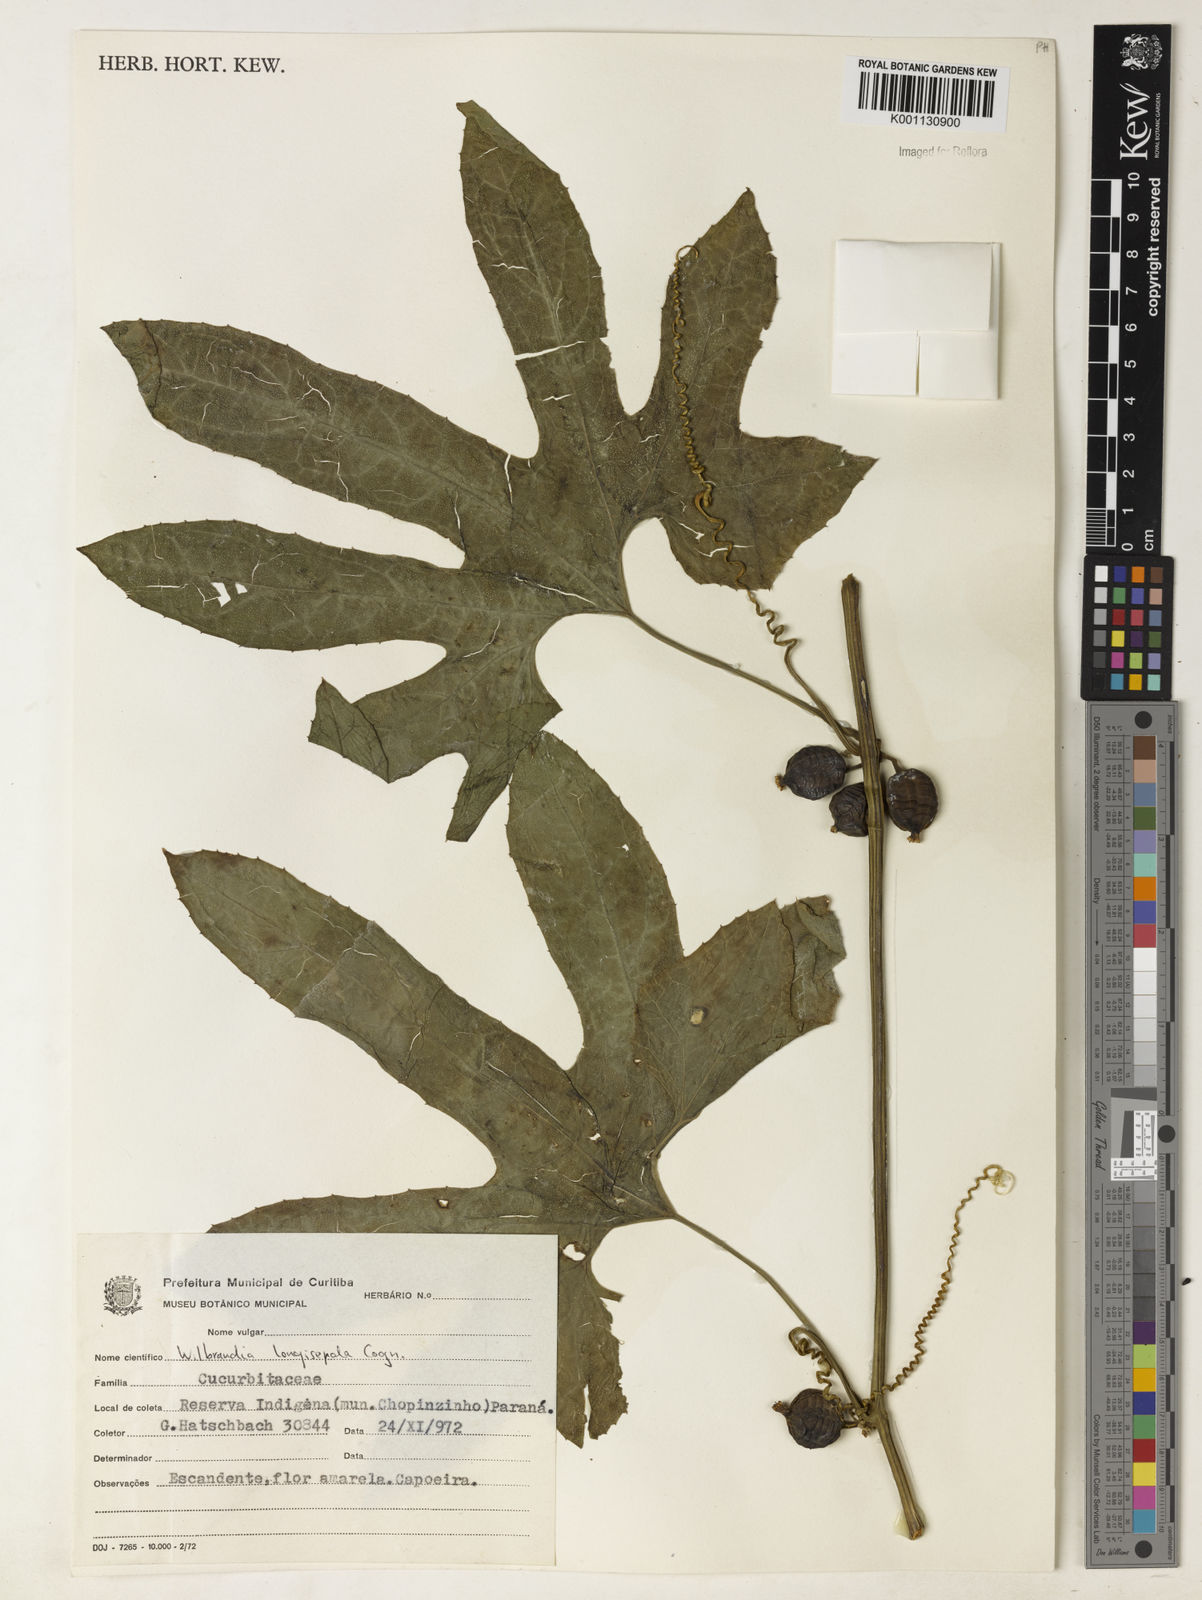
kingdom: Plantae
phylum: Tracheophyta
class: Magnoliopsida
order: Cucurbitales
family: Cucurbitaceae
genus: Wilbrandia
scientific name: Wilbrandia longisepala
